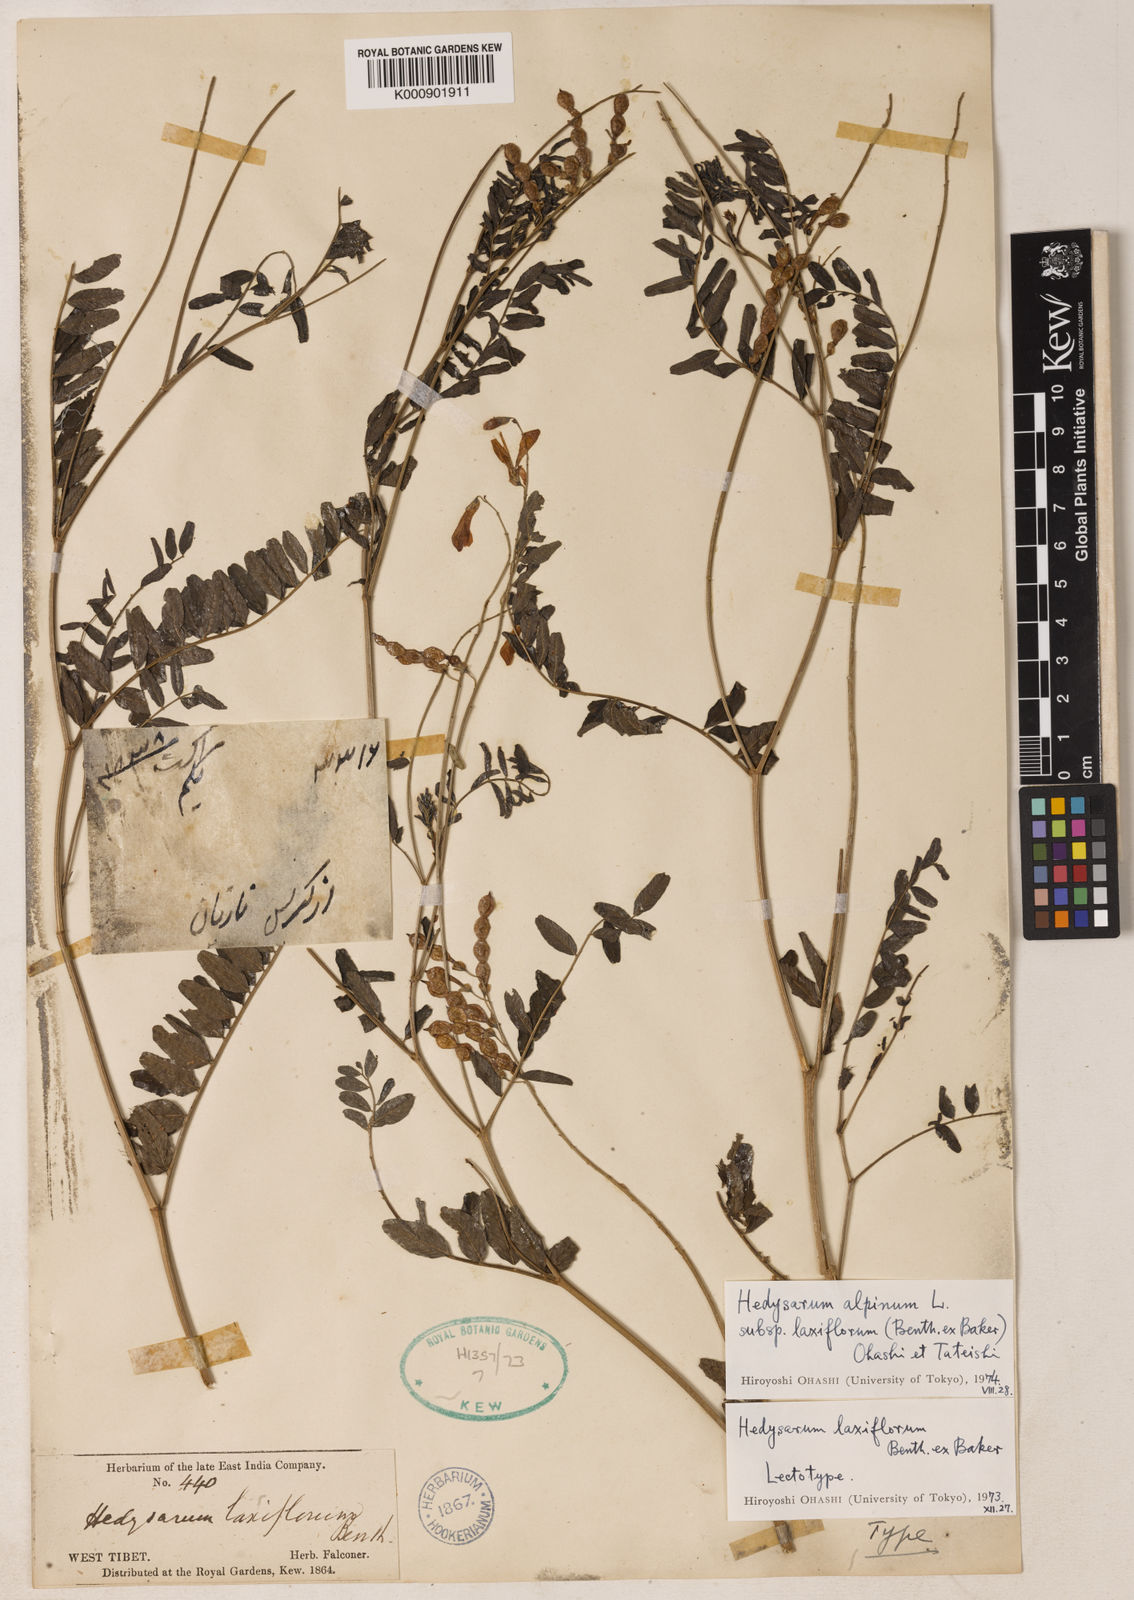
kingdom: Plantae
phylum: Tracheophyta
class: Magnoliopsida
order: Fabales
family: Fabaceae
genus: Hedysarum
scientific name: Hedysarum alpinum
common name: Alpine sweet-vetch
